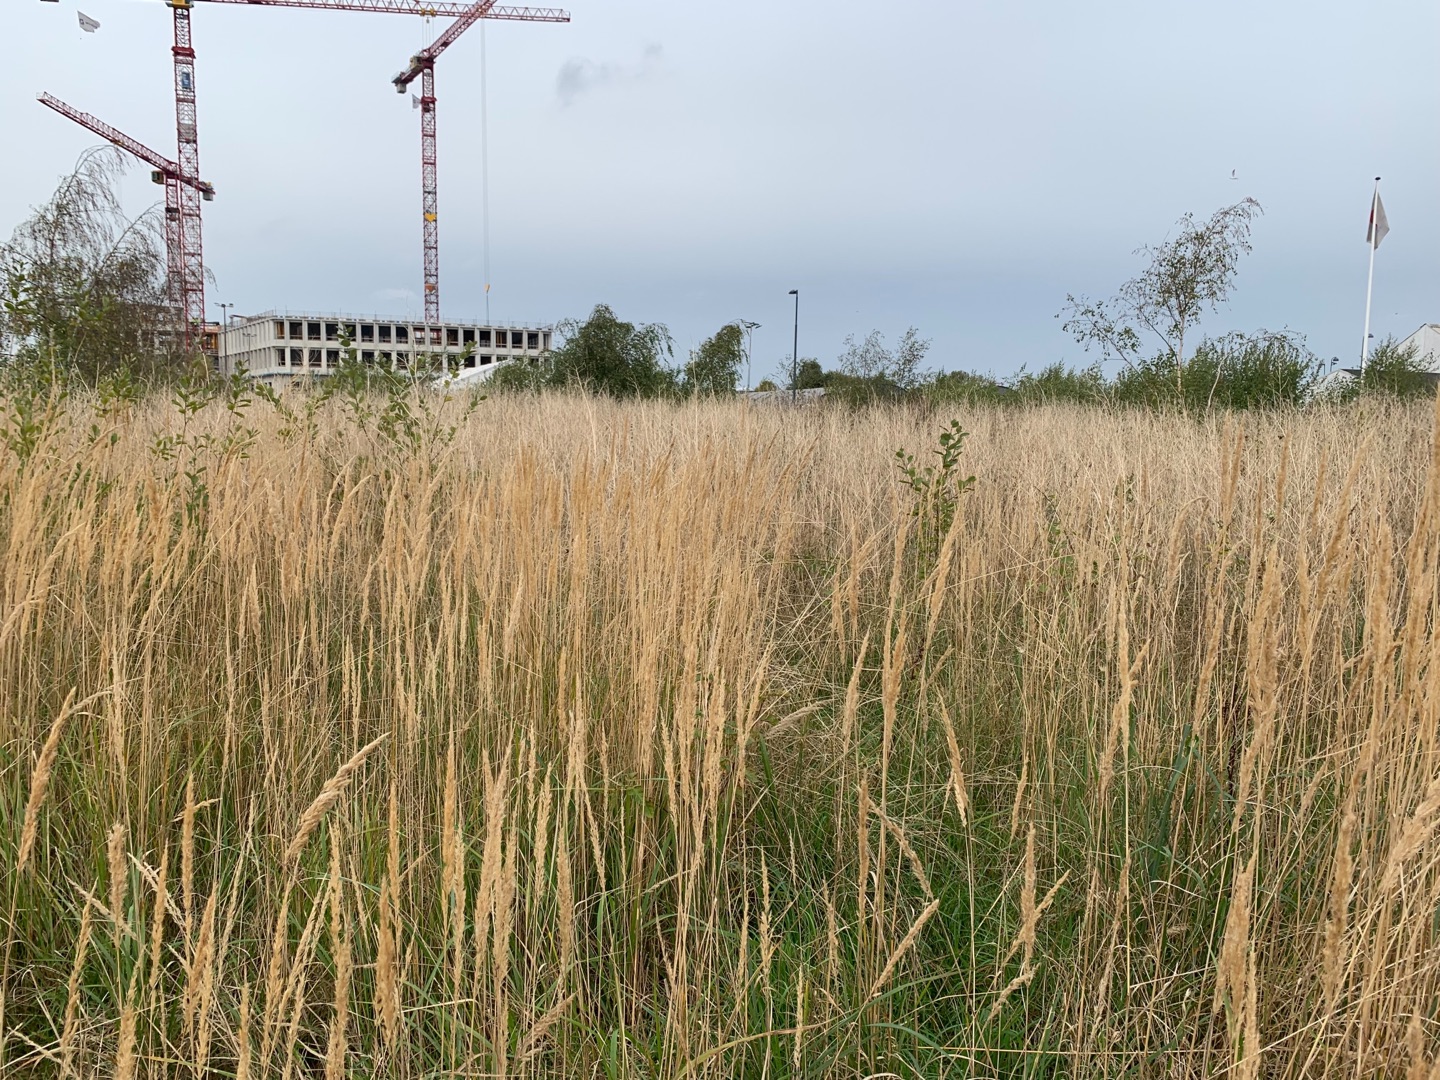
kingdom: Plantae
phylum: Tracheophyta
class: Liliopsida
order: Poales
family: Poaceae
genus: Calamagrostis
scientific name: Calamagrostis epigejos
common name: Bjerg-rørhvene
